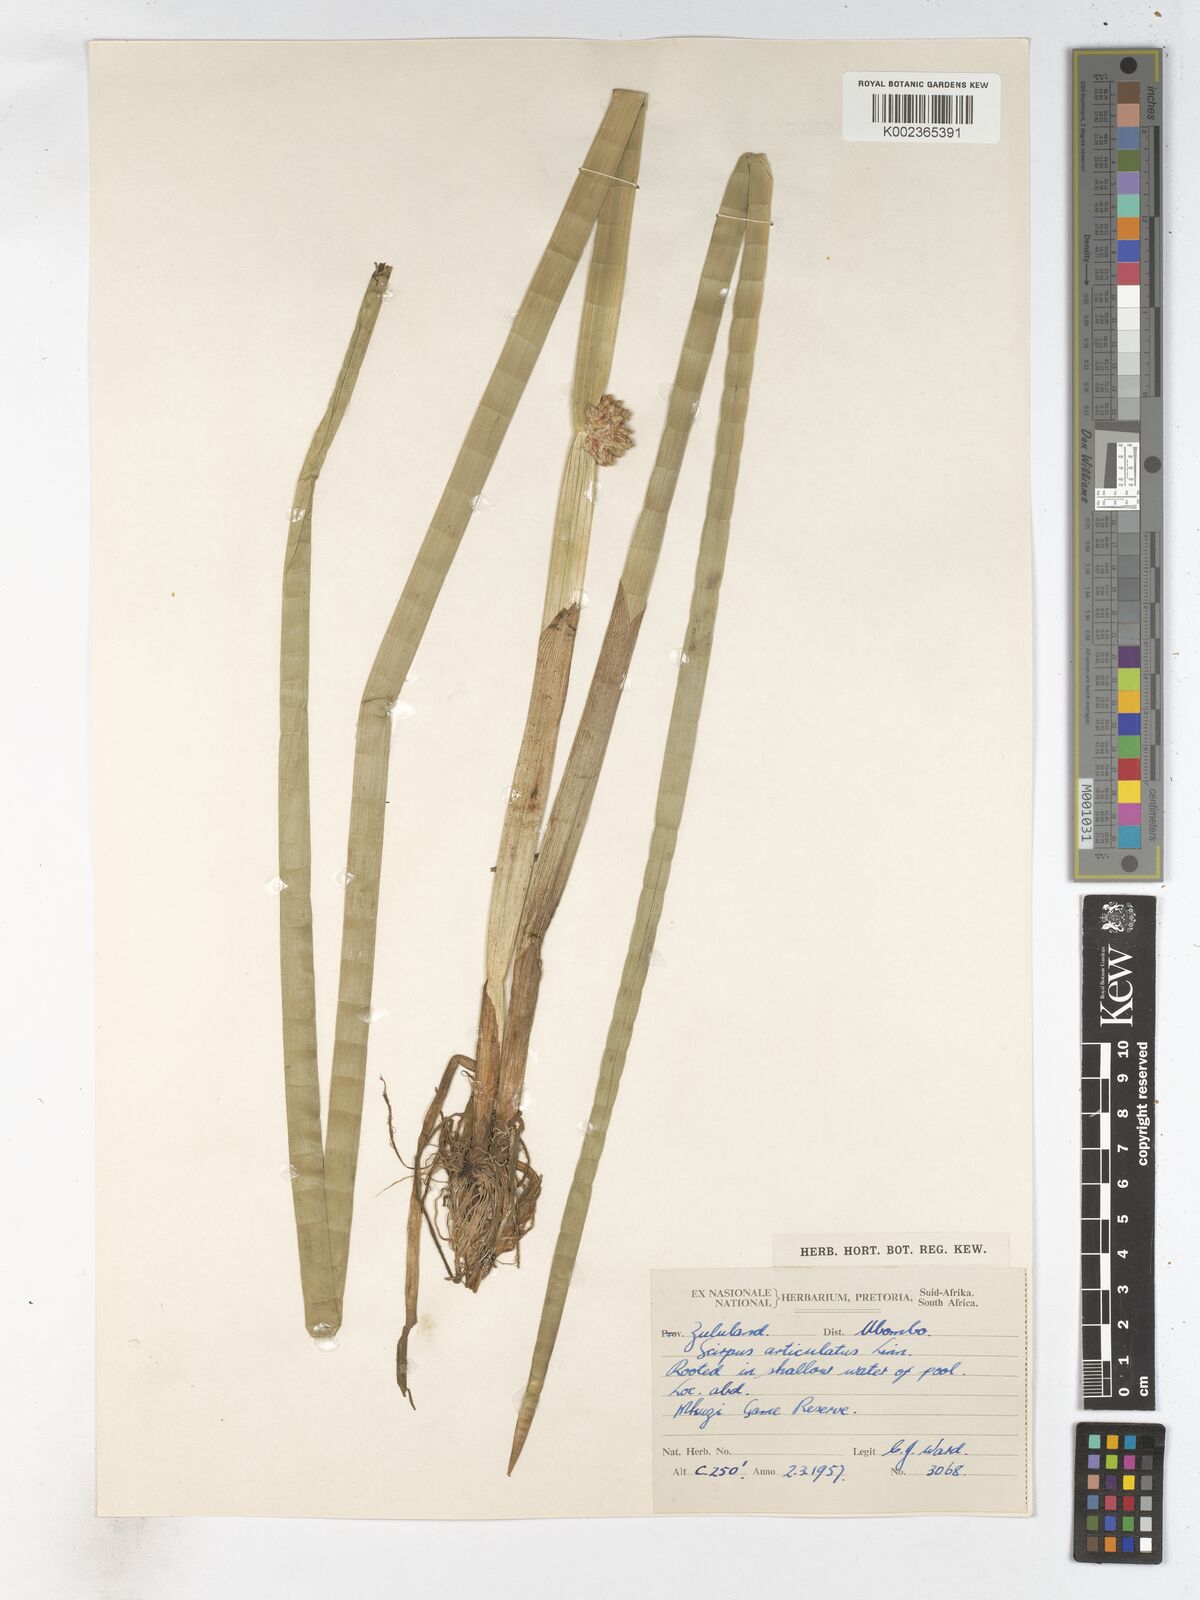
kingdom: Plantae
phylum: Tracheophyta
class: Liliopsida
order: Poales
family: Cyperaceae
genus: Schoenoplectiella
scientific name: Schoenoplectiella articulata
